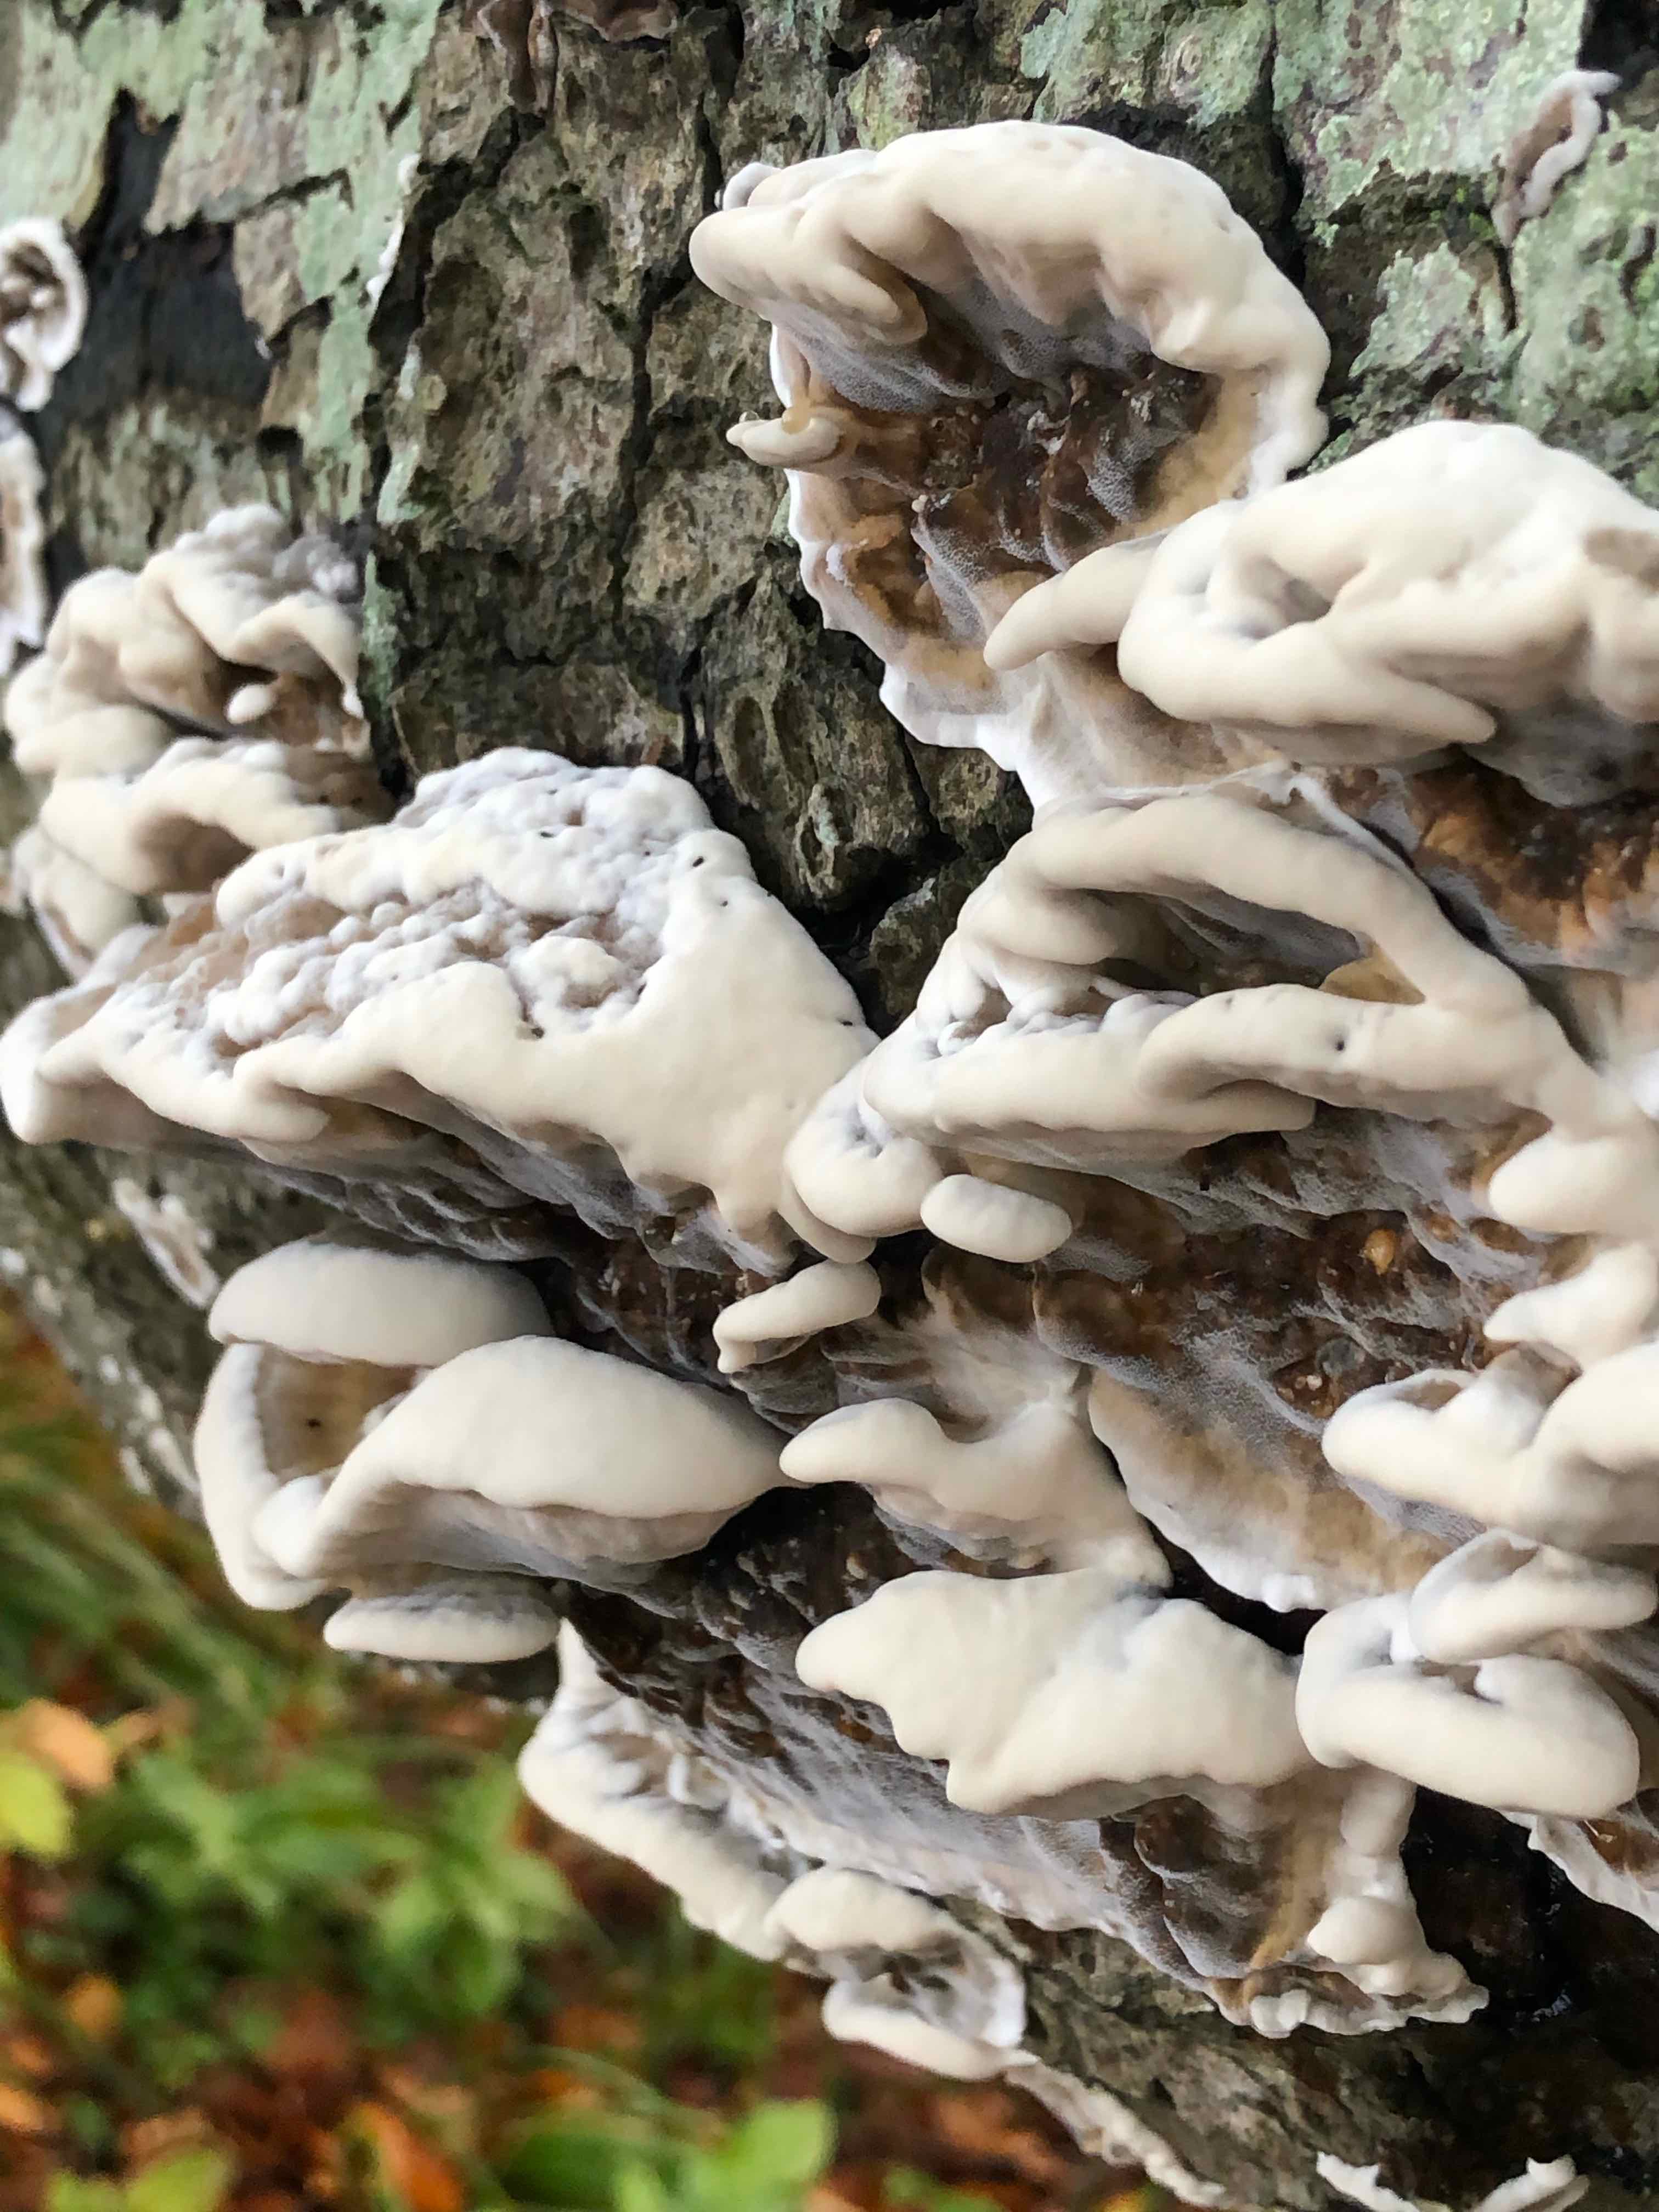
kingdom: Fungi
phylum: Basidiomycota
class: Agaricomycetes
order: Polyporales
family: Phanerochaetaceae
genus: Bjerkandera
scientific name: Bjerkandera adusta
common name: sveden sodporesvamp
